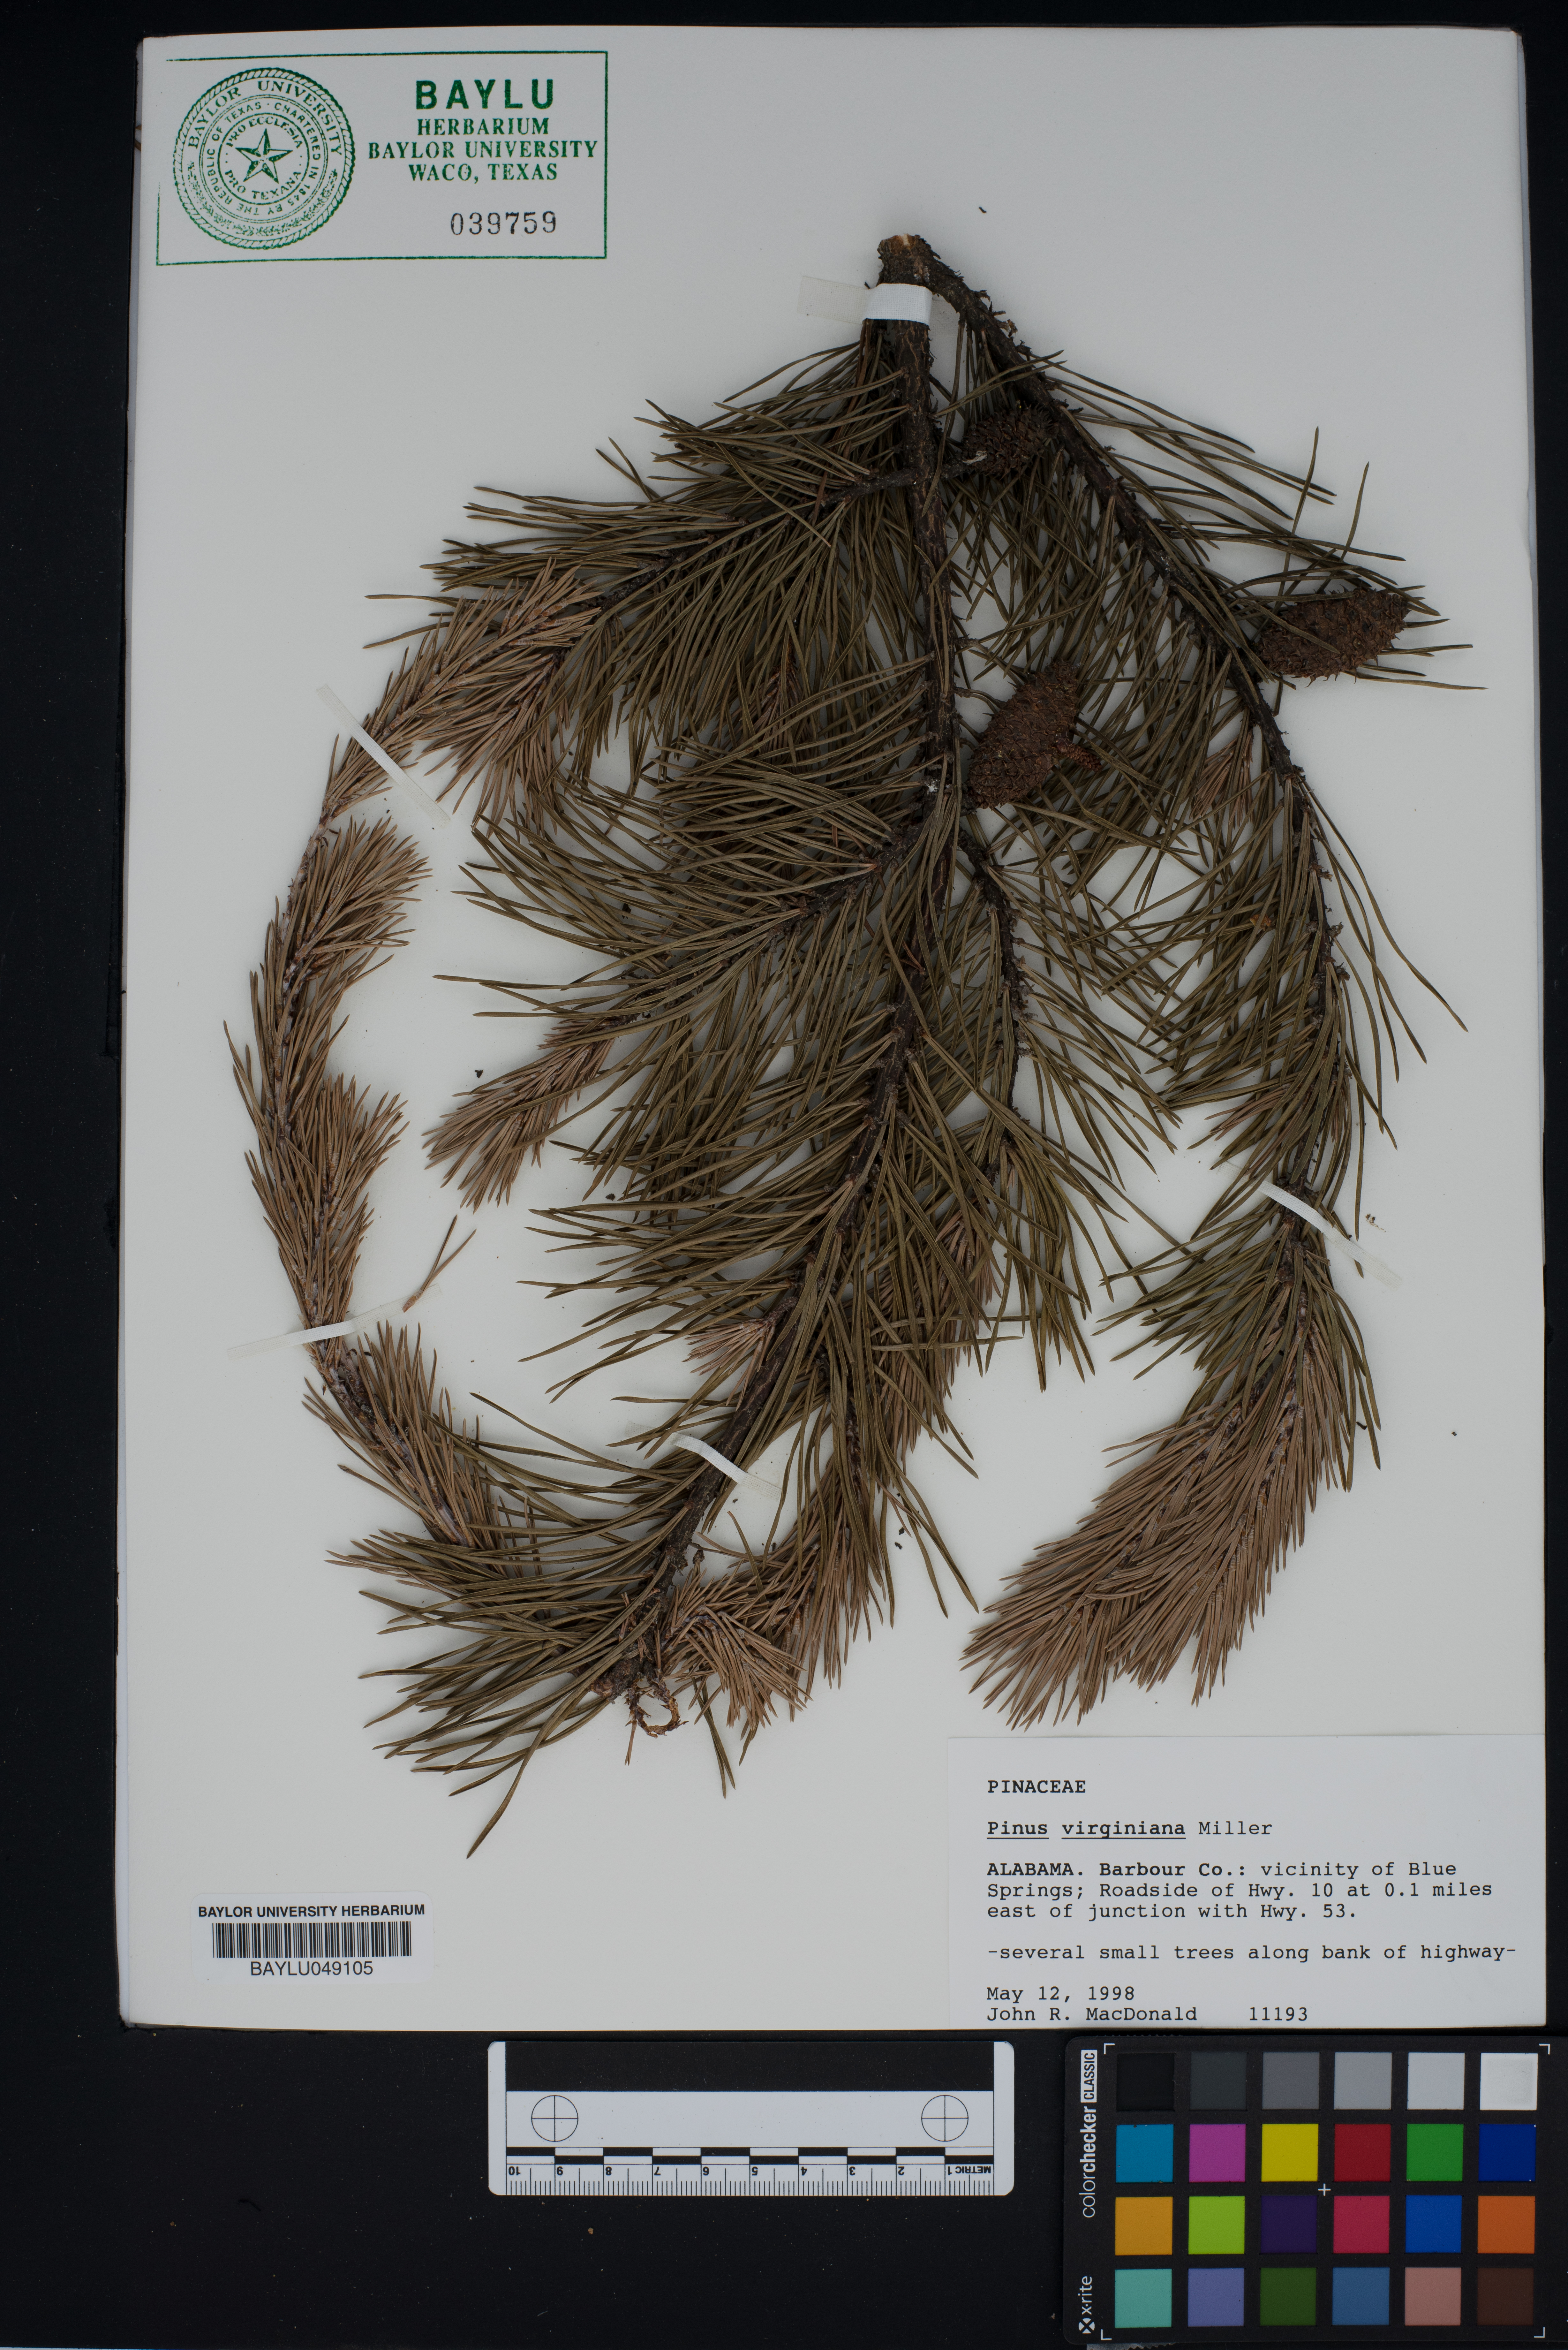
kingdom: Plantae
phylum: Tracheophyta
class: Pinopsida
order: Pinales
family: Pinaceae
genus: Pinus
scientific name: Pinus virginiana
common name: Scrub pine
